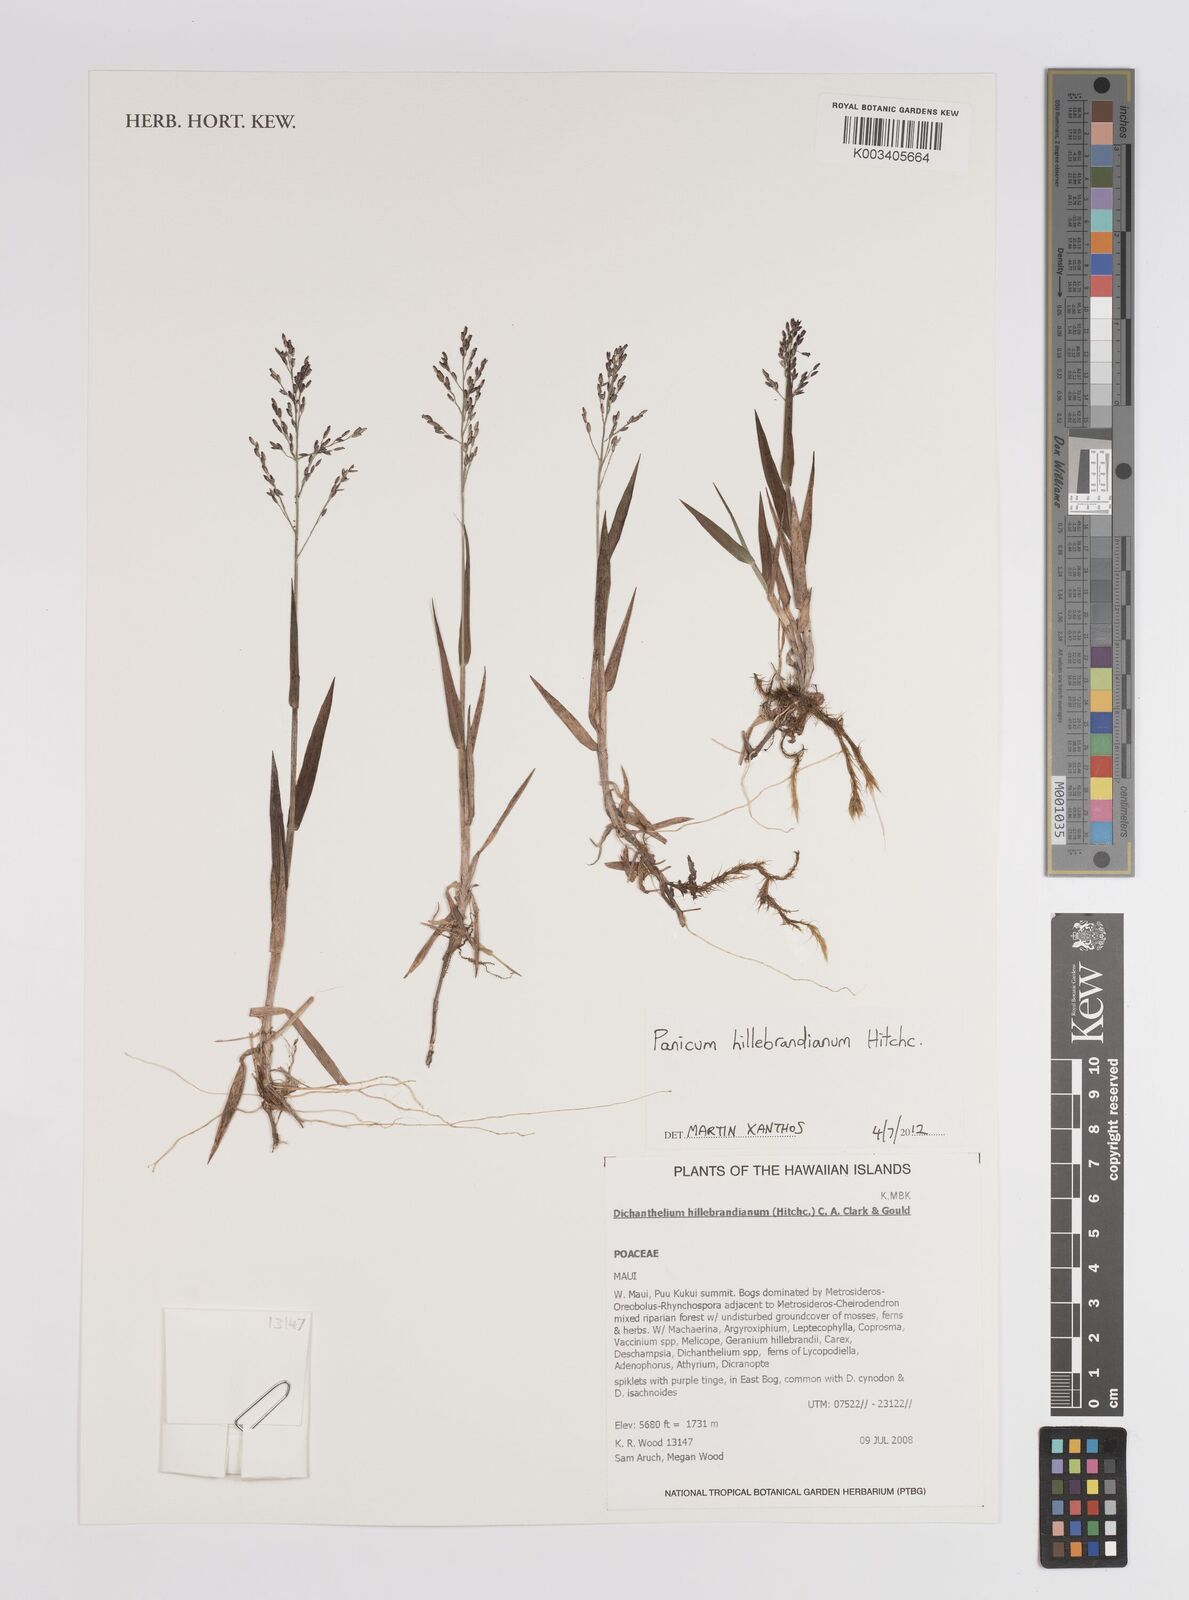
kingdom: Plantae
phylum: Tracheophyta
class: Liliopsida
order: Poales
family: Poaceae
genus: Dichanthelium
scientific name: Dichanthelium hillebrandianum
